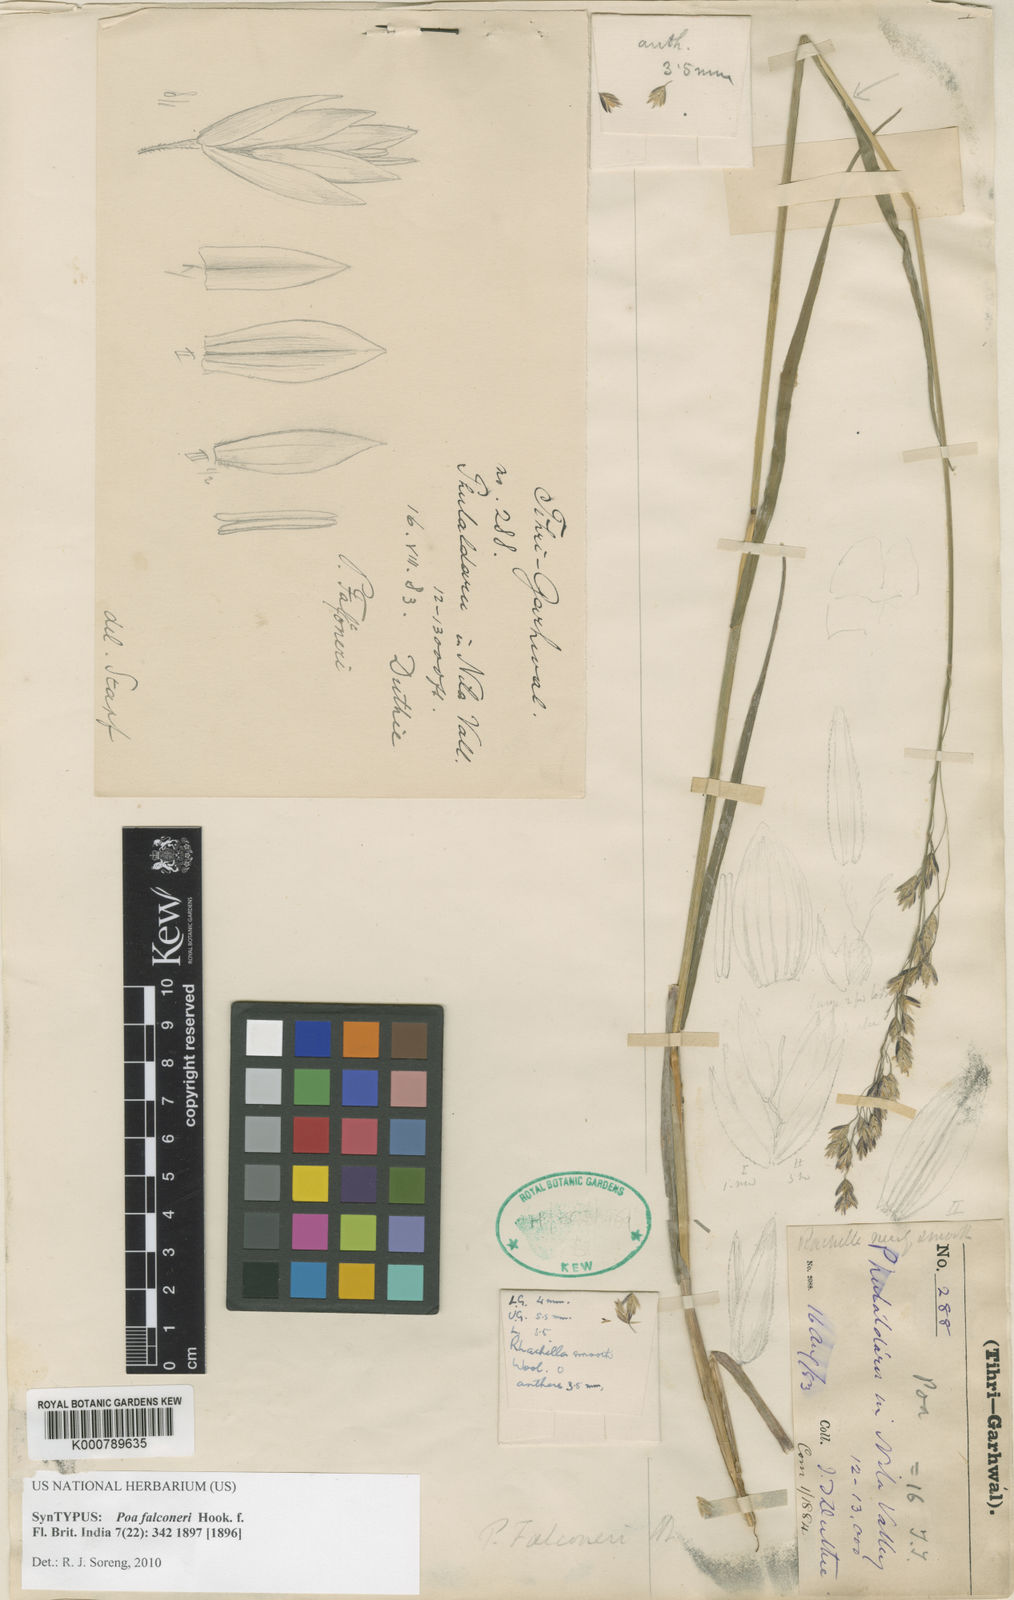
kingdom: Plantae
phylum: Tracheophyta
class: Liliopsida
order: Poales
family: Poaceae
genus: Poa
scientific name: Poa falconeri
